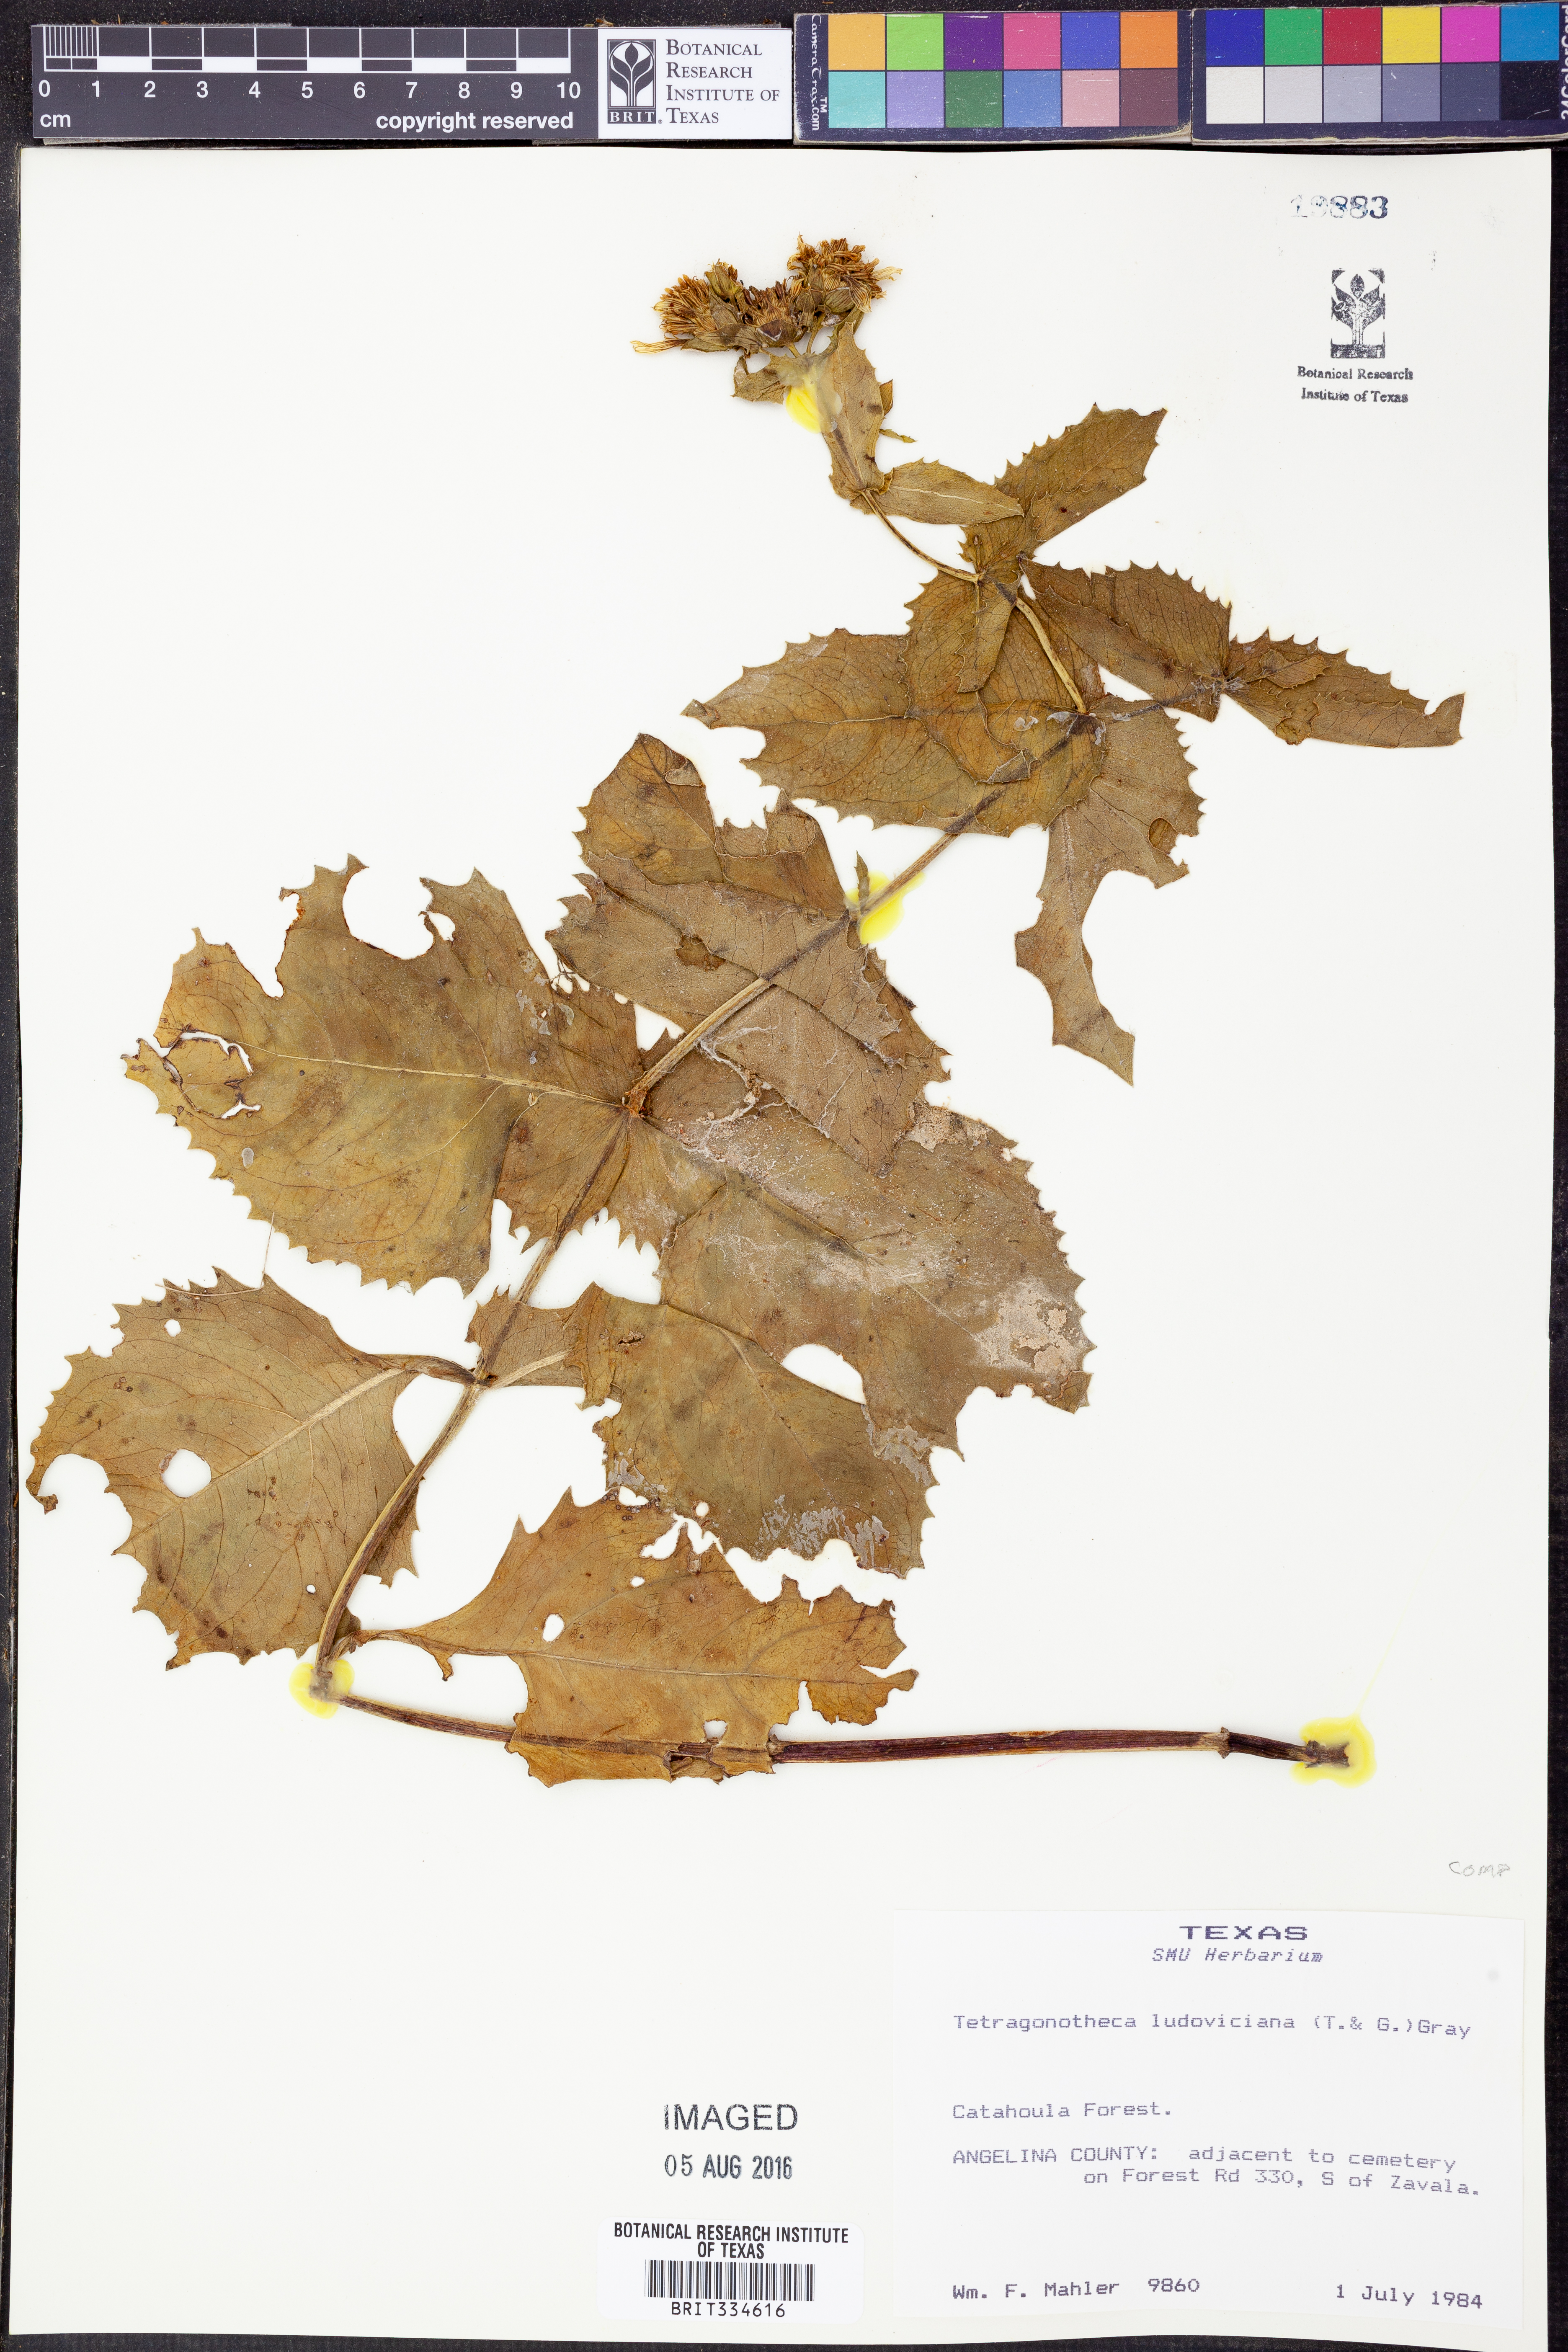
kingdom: Plantae
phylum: Tracheophyta
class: Magnoliopsida
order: Asterales
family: Asteraceae
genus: Tetragonotheca
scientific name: Tetragonotheca ludoviciana
